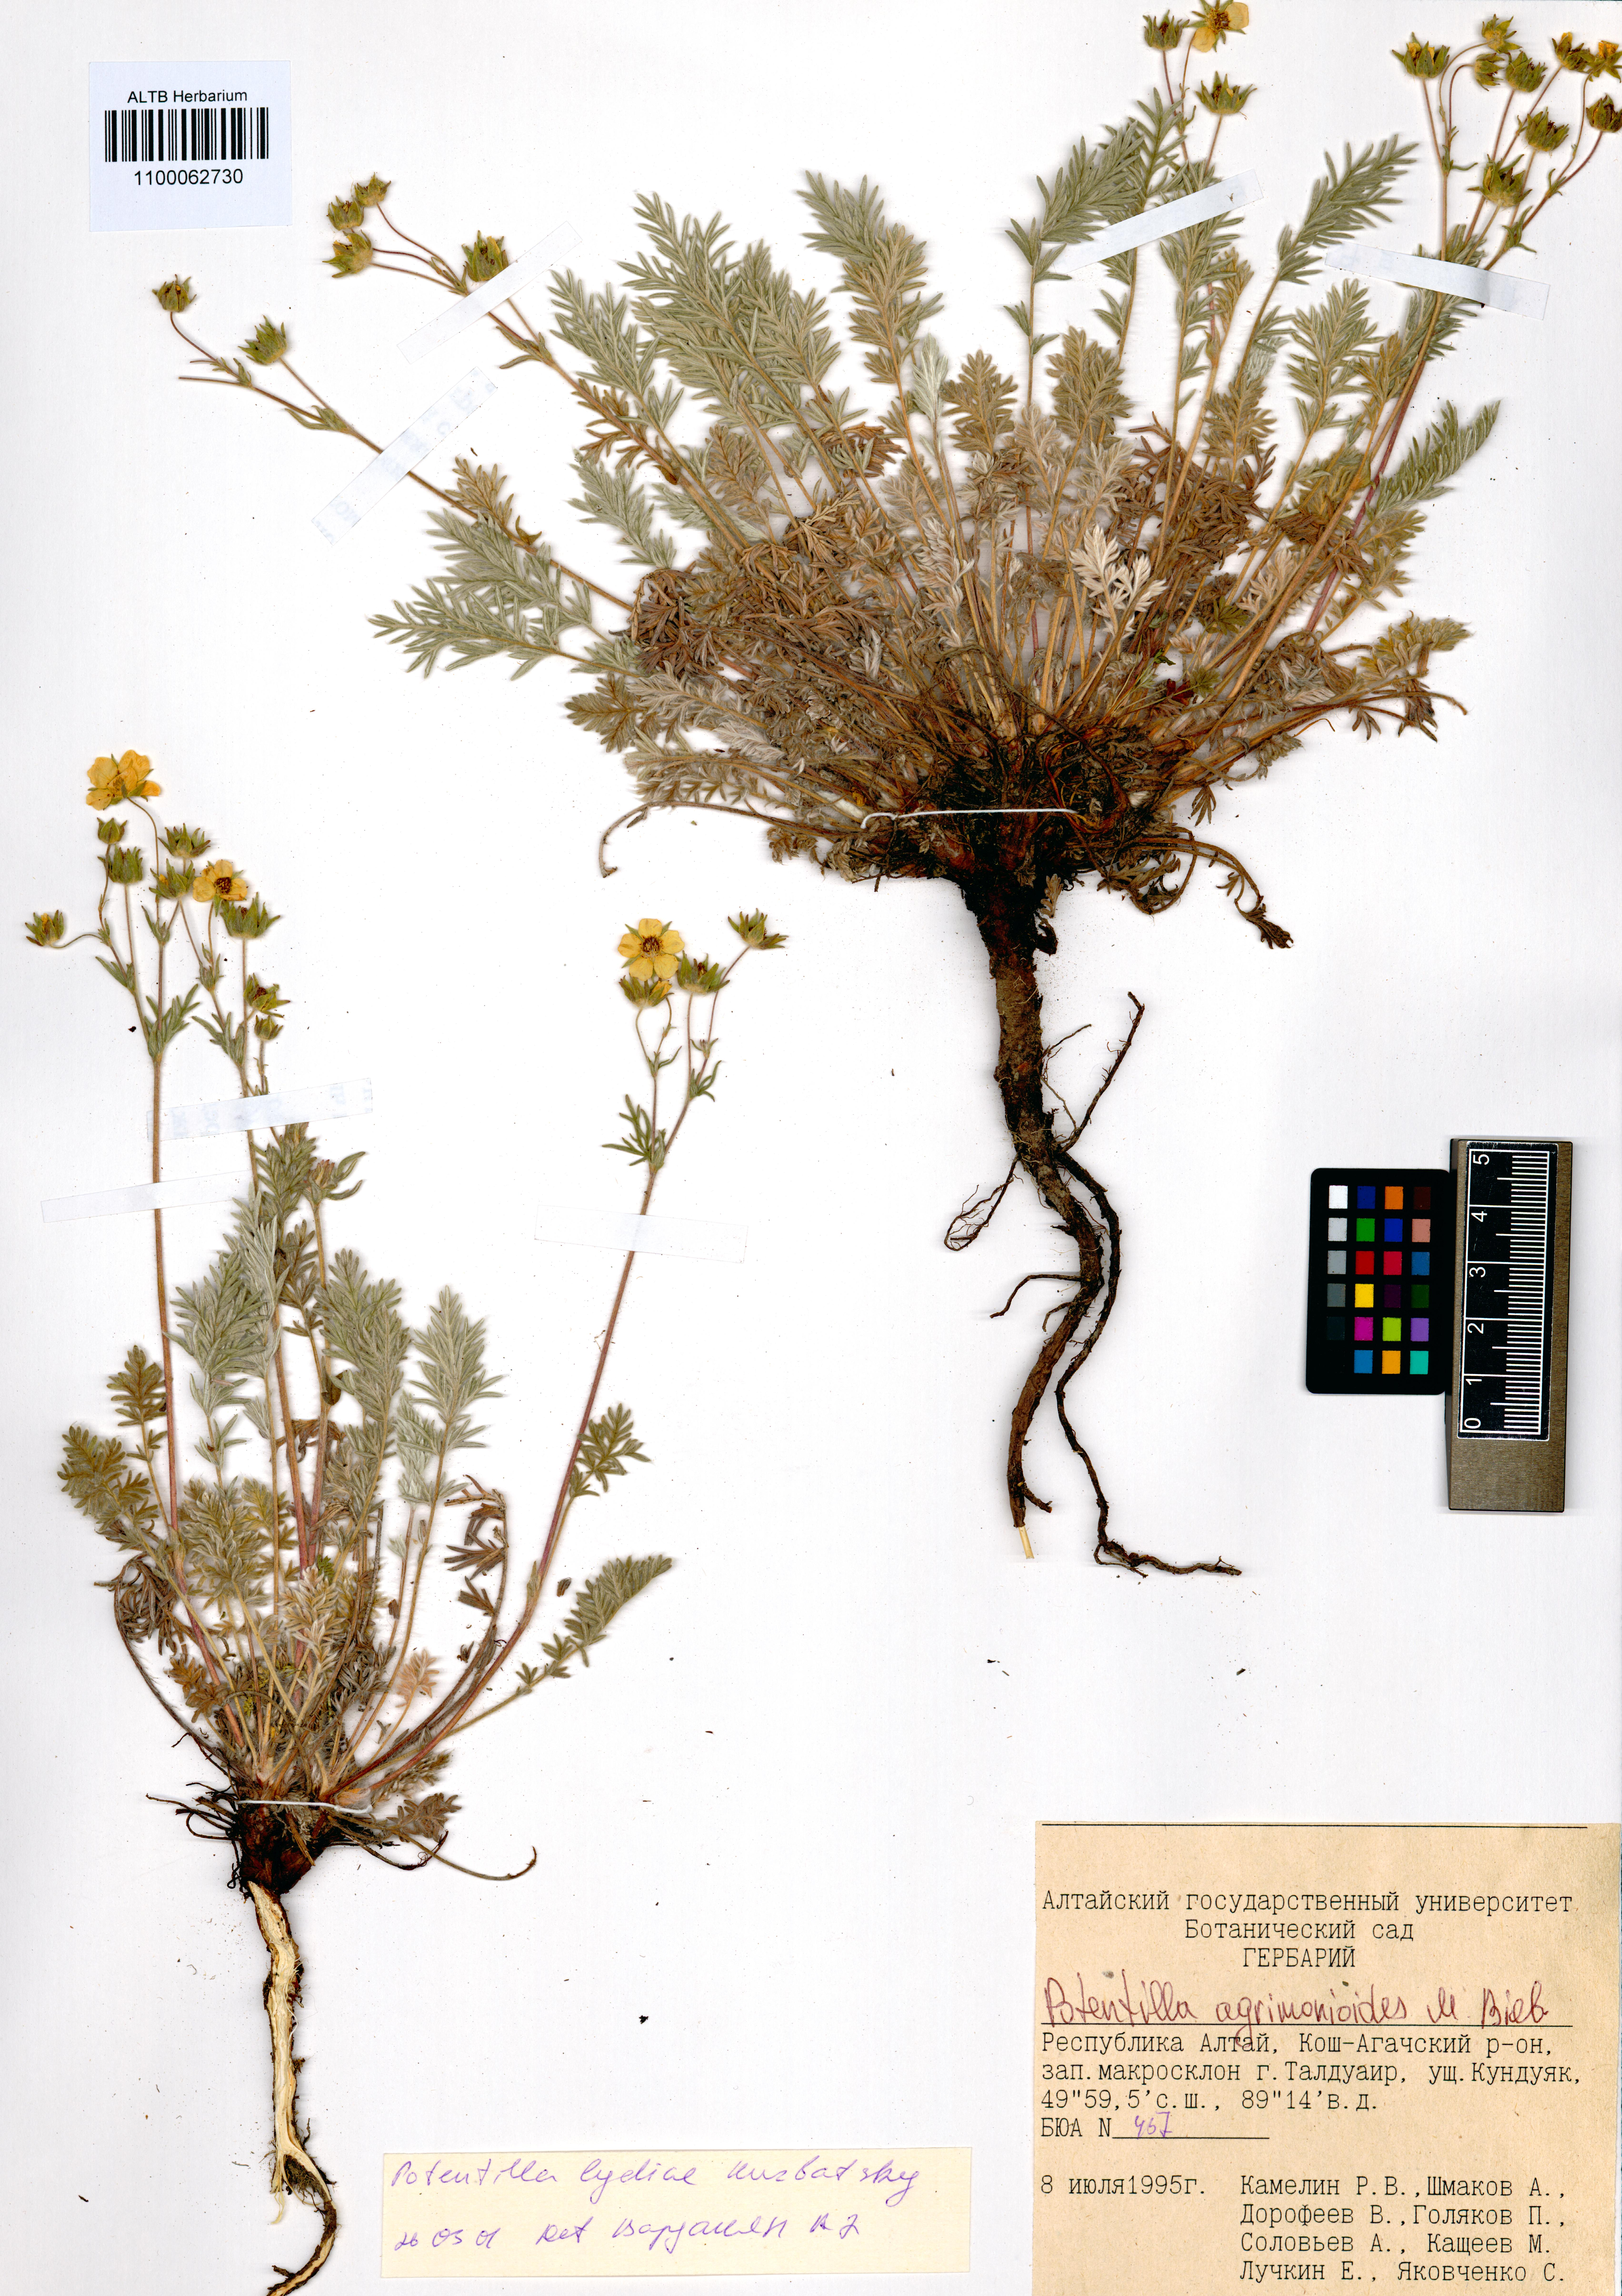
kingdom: Plantae
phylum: Tracheophyta
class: Magnoliopsida
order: Rosales
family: Rosaceae
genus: Potentilla
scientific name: Potentilla agrimonioides
